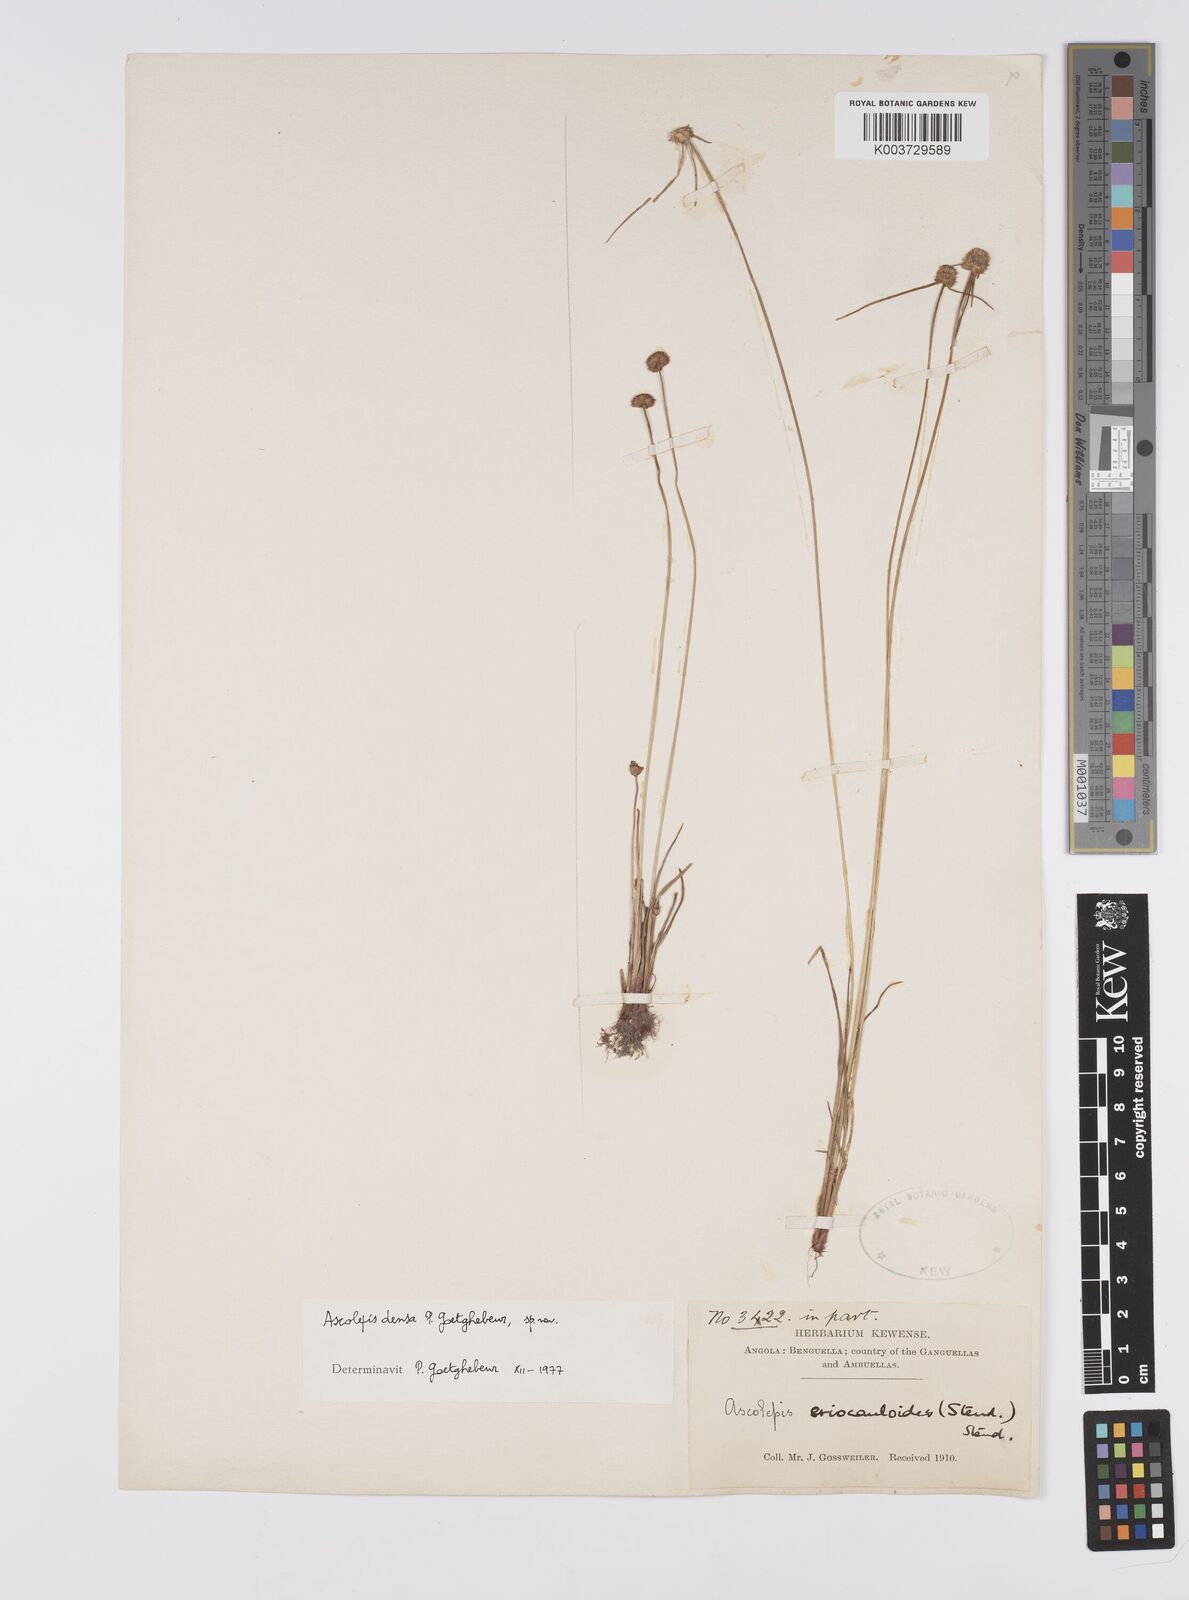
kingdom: Plantae
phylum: Tracheophyta
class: Liliopsida
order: Poales
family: Cyperaceae
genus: Cyperus
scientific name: Cyperus
